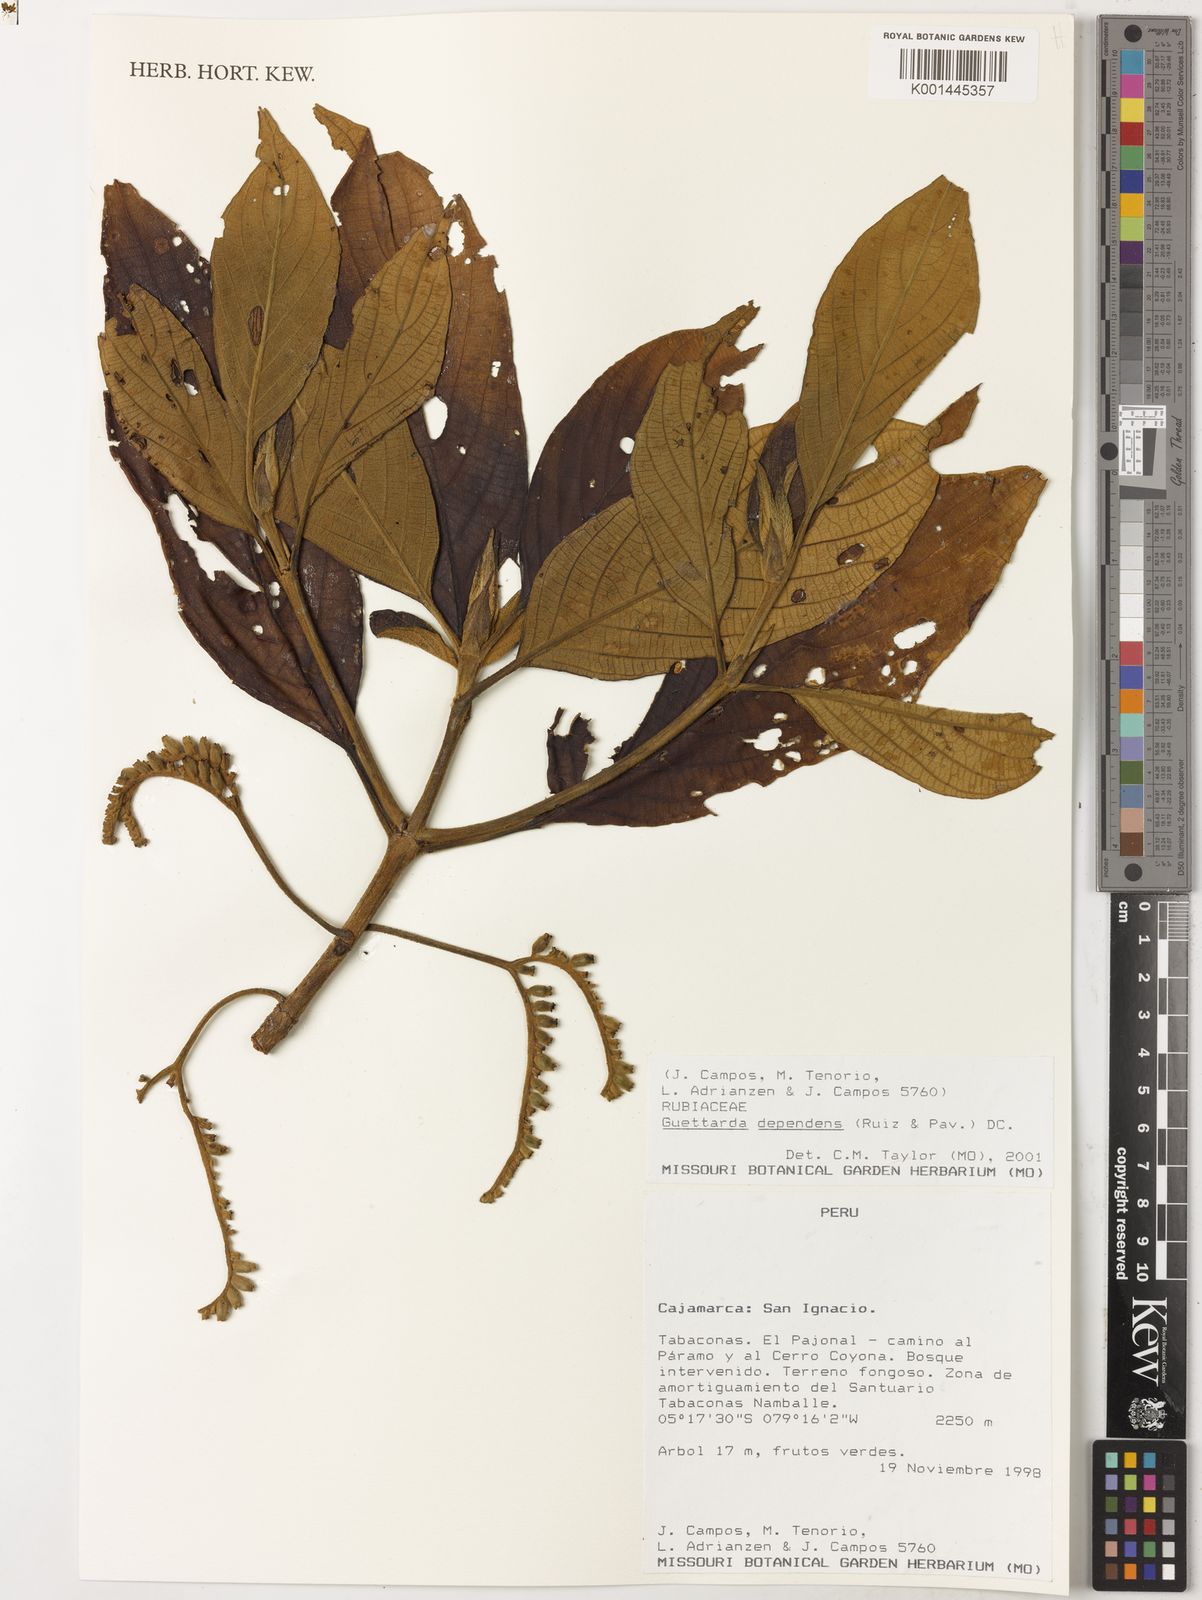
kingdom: Plantae
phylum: Tracheophyta
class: Magnoliopsida
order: Gentianales
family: Rubiaceae
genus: Tournefortiopsis
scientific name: Tournefortiopsis dependens
